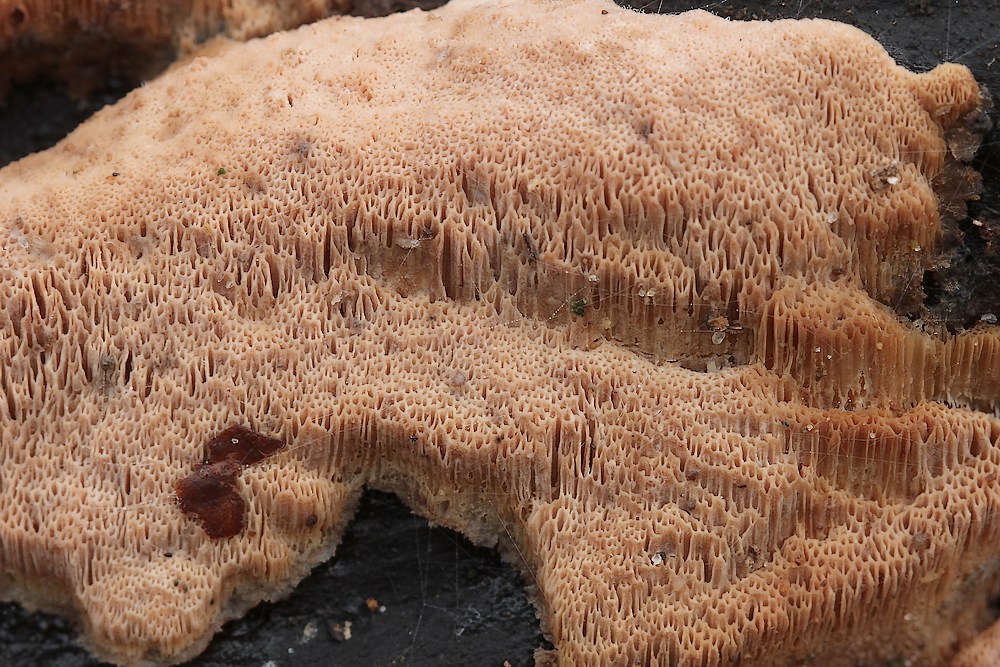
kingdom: Fungi
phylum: Basidiomycota
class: Agaricomycetes
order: Polyporales
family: Meruliaceae
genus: Mycoacia
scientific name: Mycoacia gilvescens
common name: rosa pastelporesvamp
